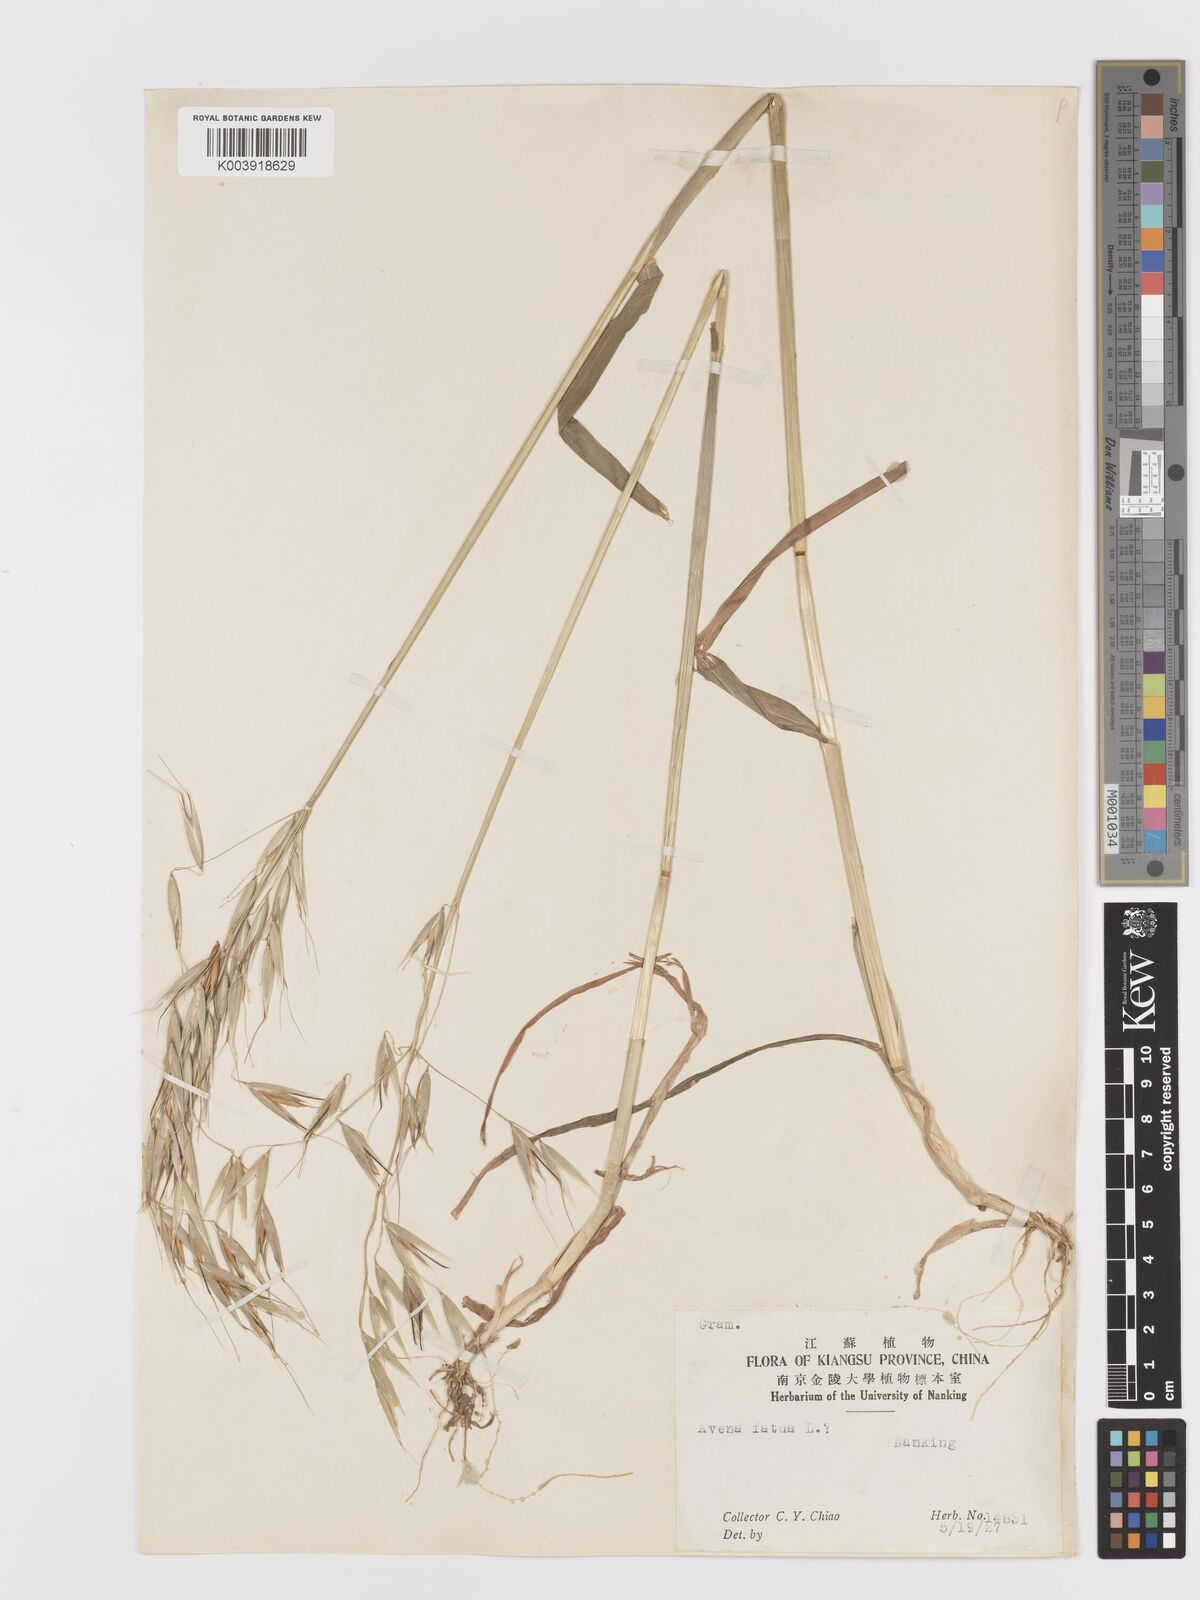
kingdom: Plantae
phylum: Tracheophyta
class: Liliopsida
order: Poales
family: Poaceae
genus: Avena
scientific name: Avena fatua
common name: Wild oat
